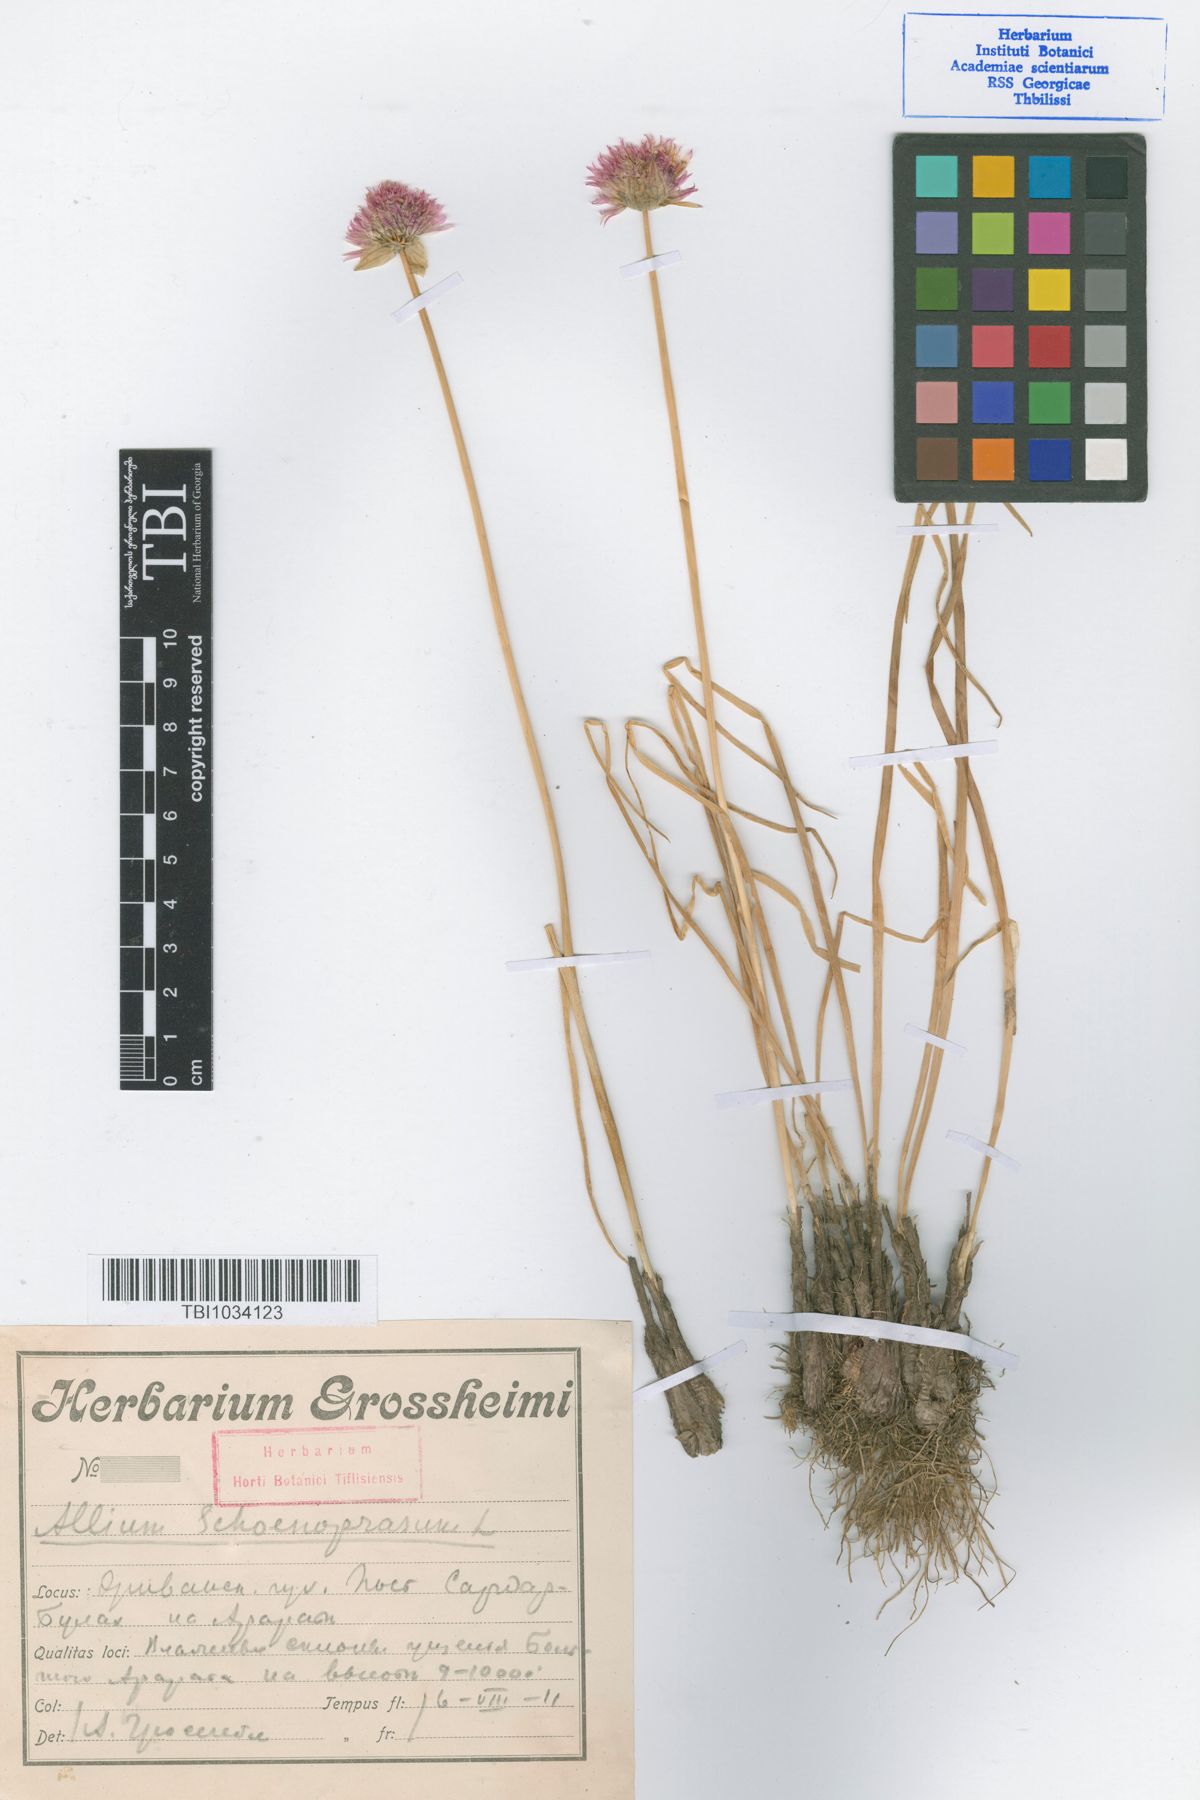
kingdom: Plantae
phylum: Tracheophyta
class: Liliopsida
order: Asparagales
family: Amaryllidaceae
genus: Allium
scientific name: Allium schoenoprasum
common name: Chives
